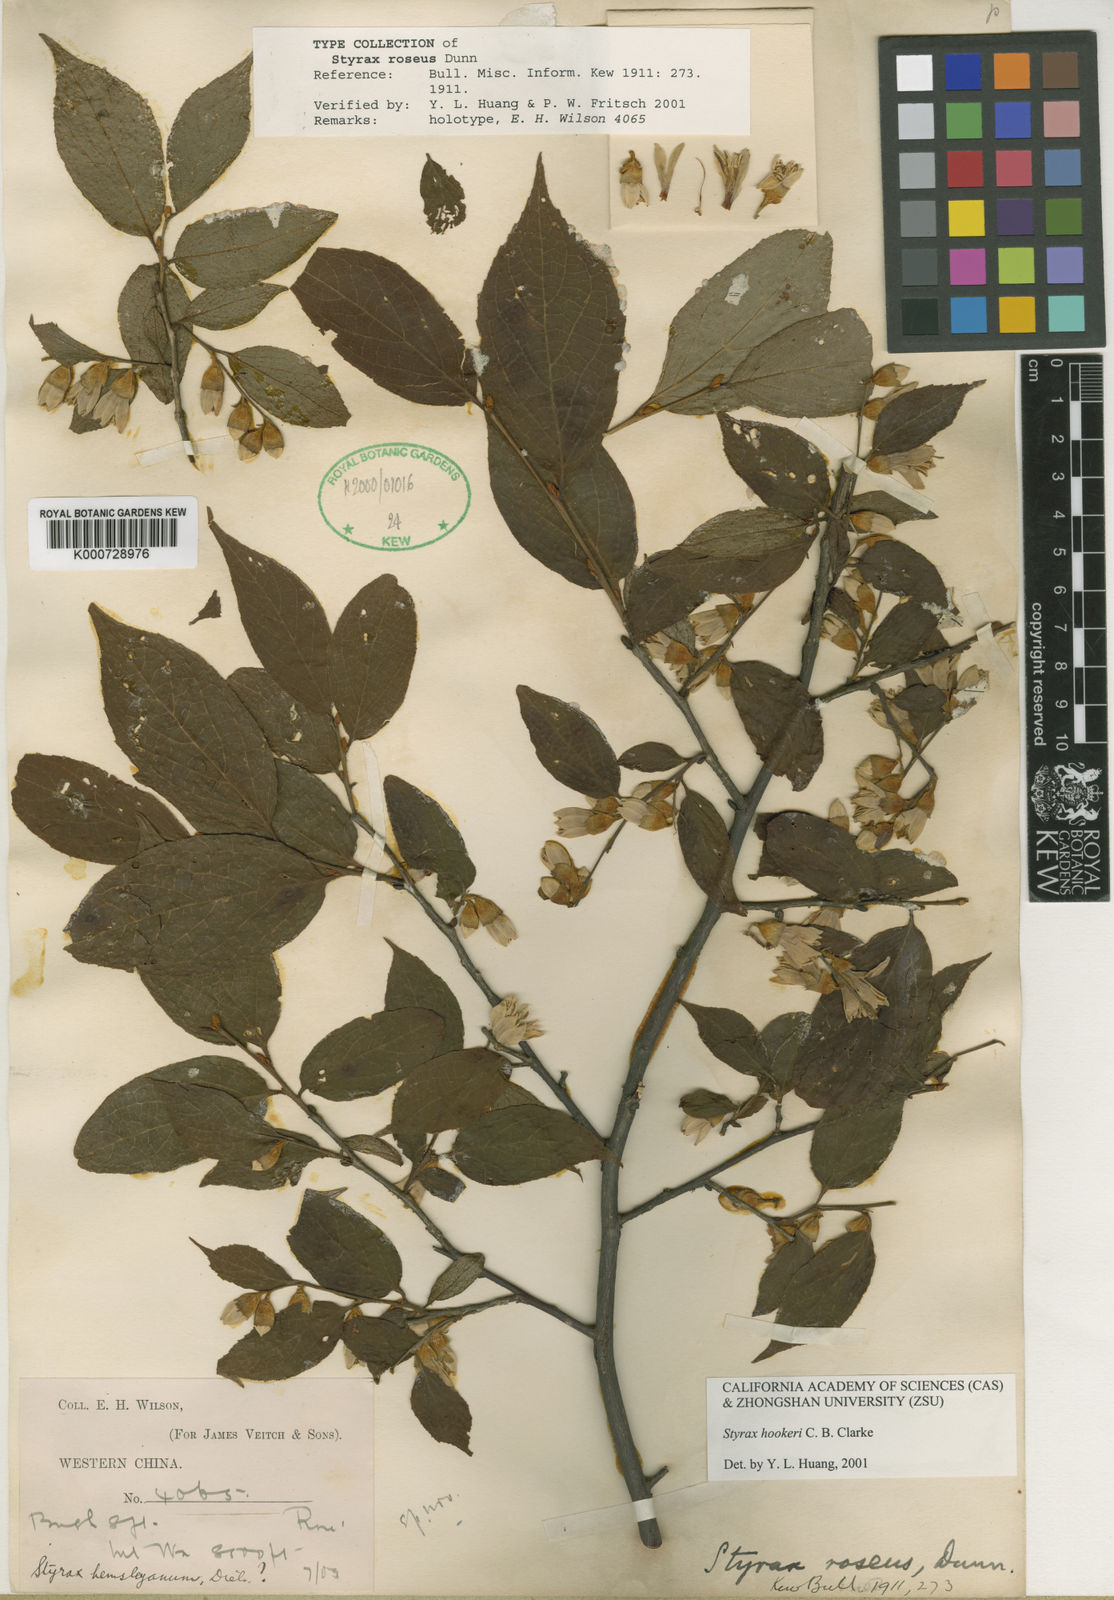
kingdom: Plantae
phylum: Tracheophyta
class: Magnoliopsida
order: Ericales
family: Styracaceae
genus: Styrax
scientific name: Styrax hookeri
